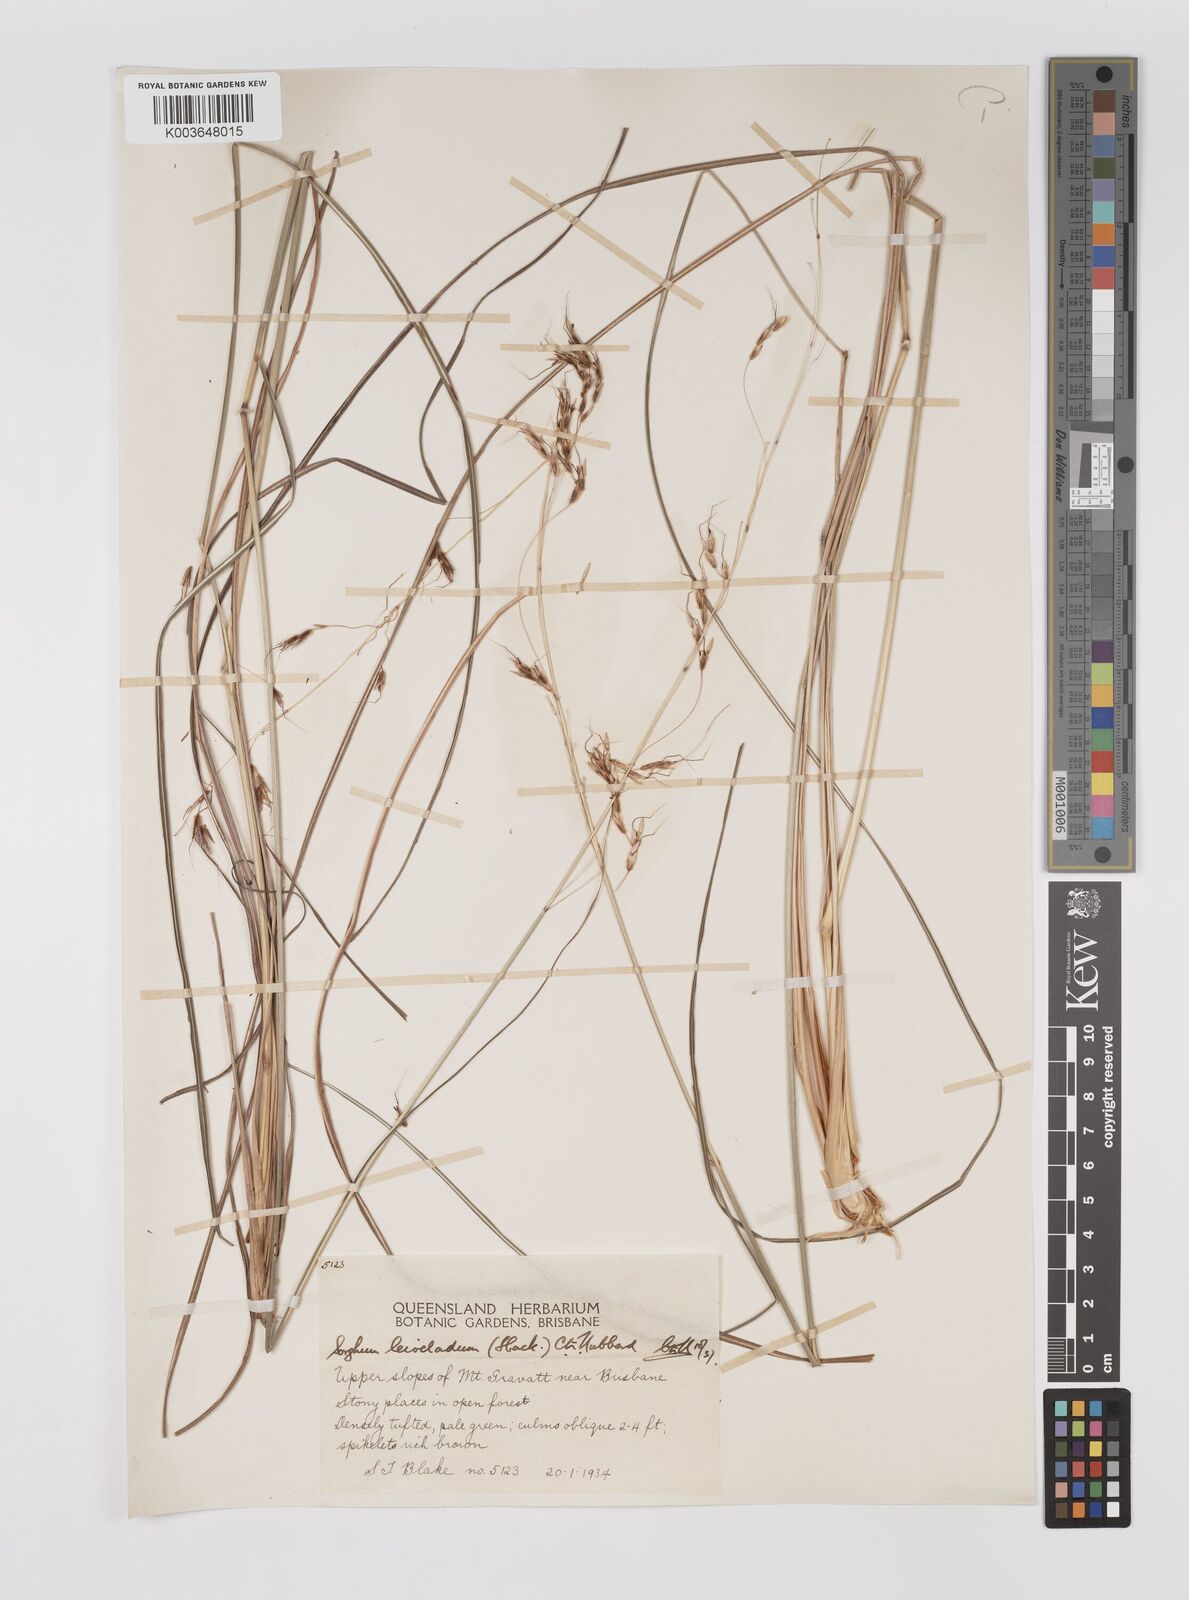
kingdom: Plantae
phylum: Tracheophyta
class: Liliopsida
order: Poales
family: Poaceae
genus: Sarga
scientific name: Sarga leioclada
